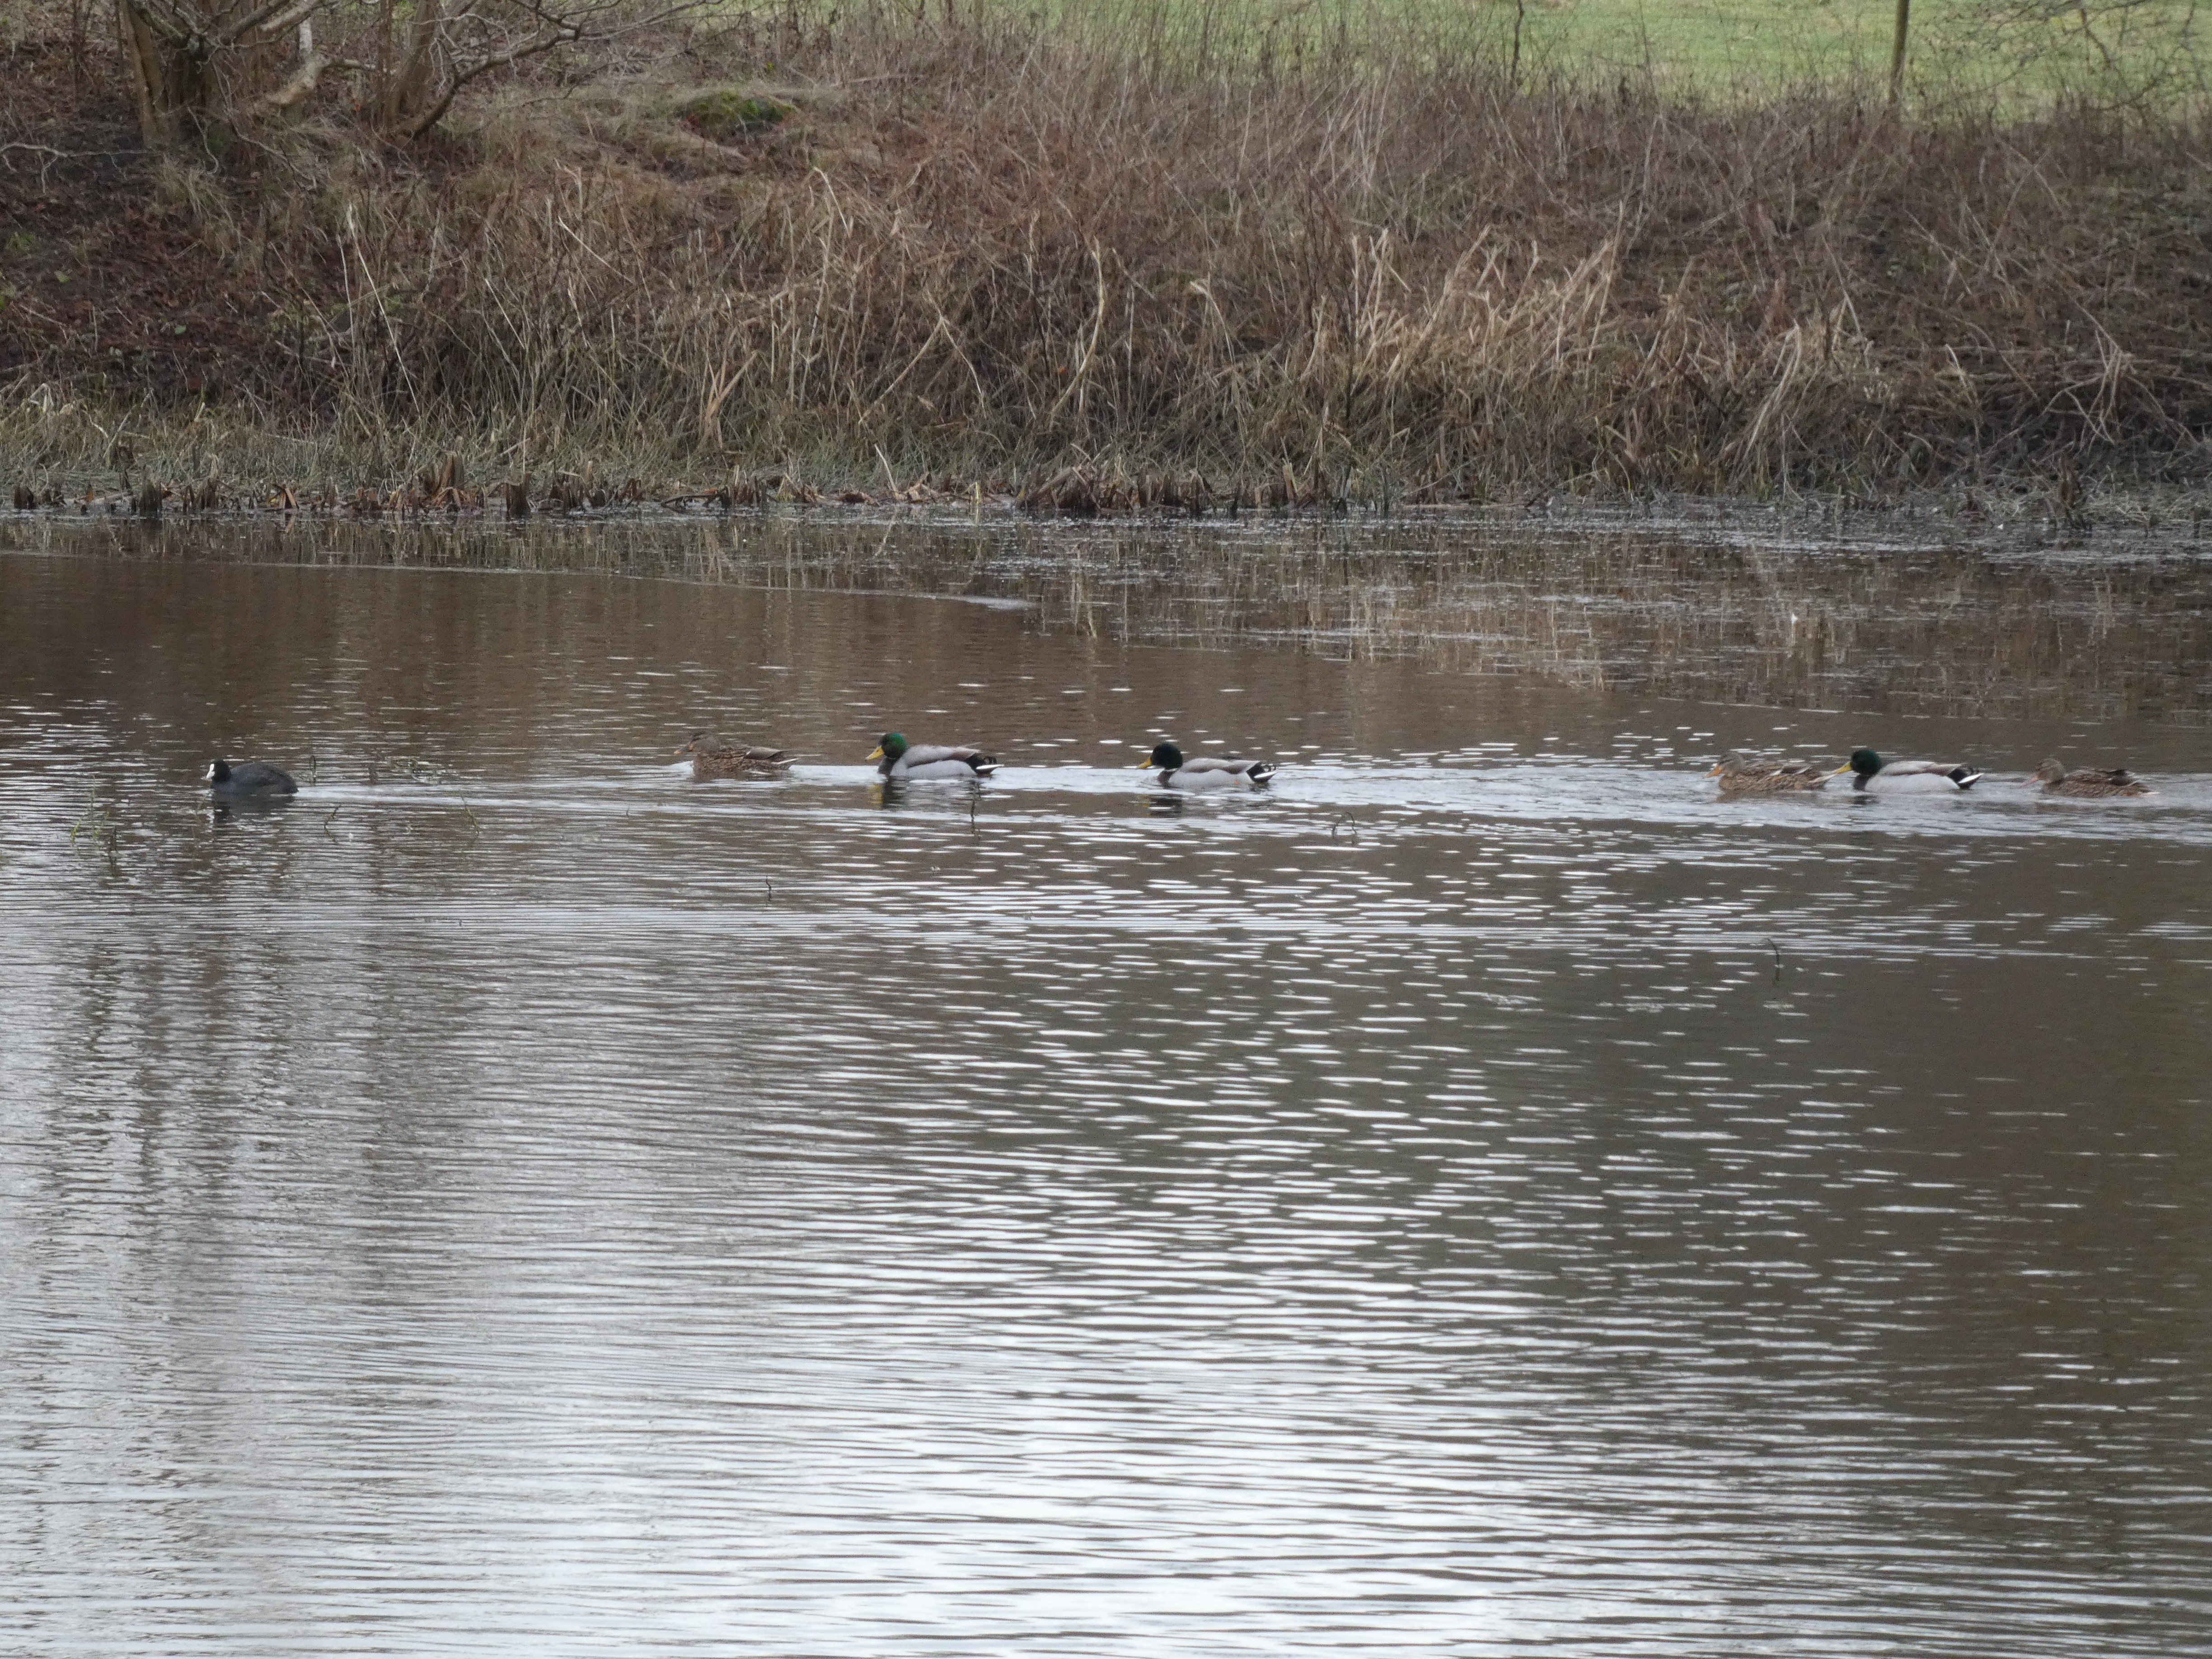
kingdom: Animalia
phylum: Chordata
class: Aves
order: Gruiformes
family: Rallidae
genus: Fulica
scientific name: Fulica atra
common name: Blishøne
